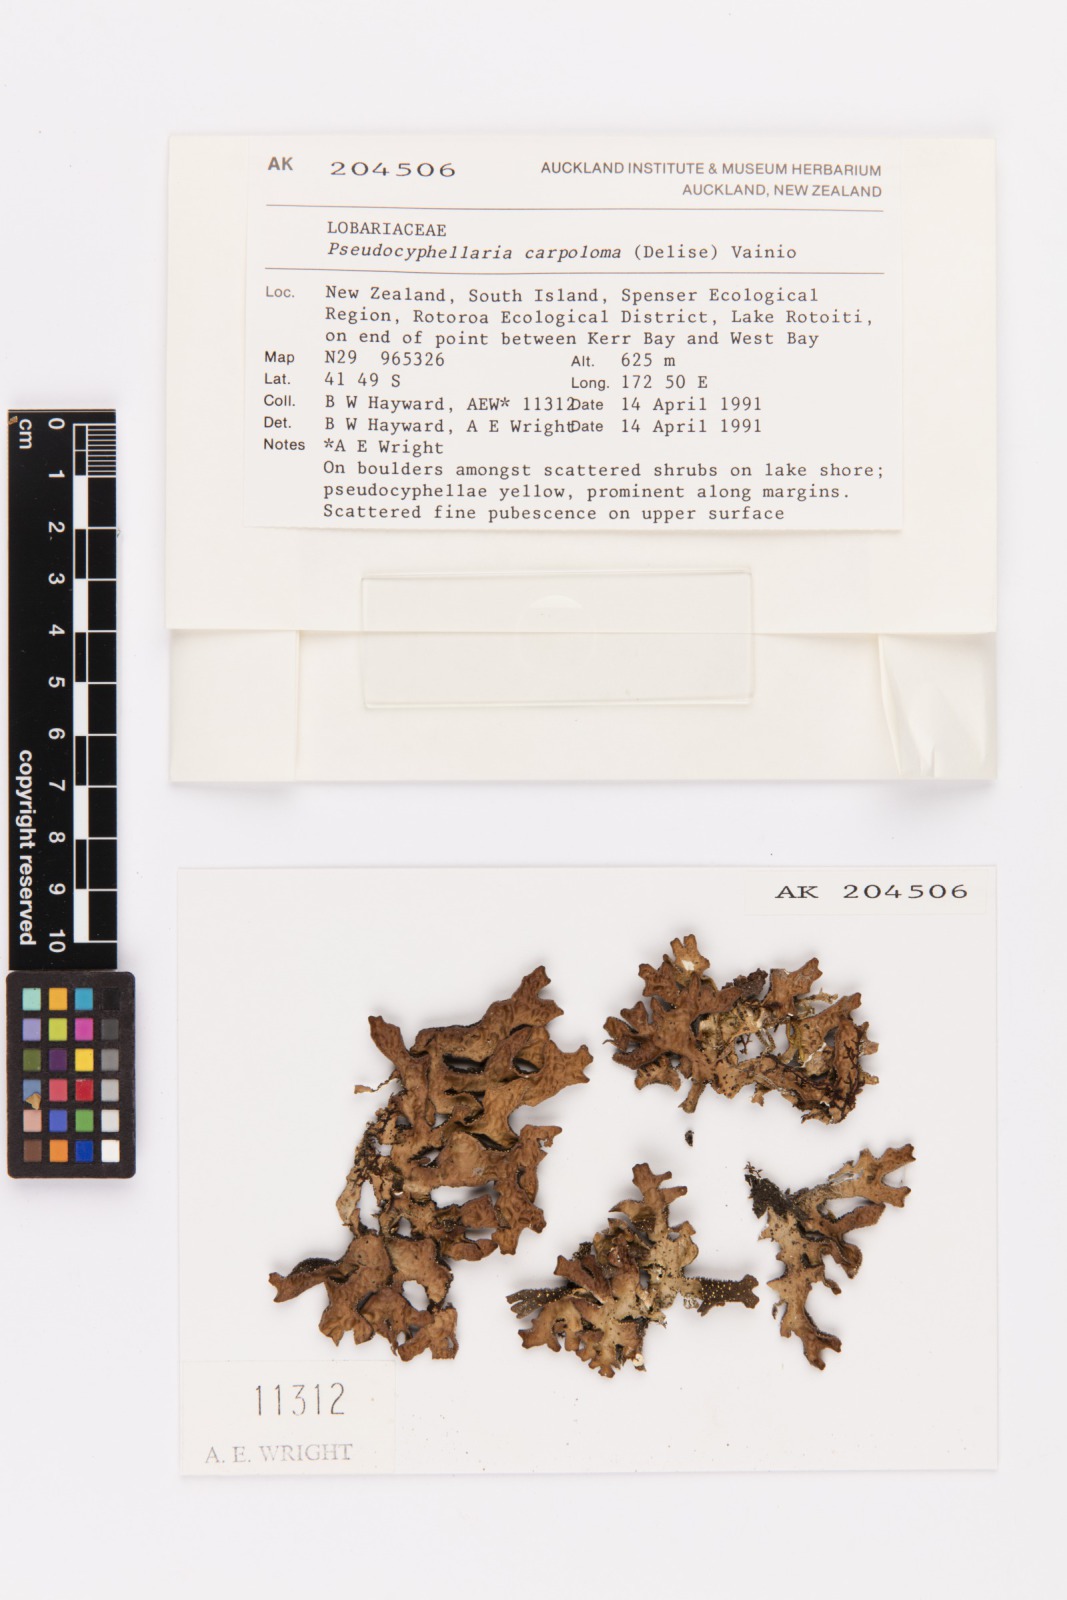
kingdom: Fungi
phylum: Ascomycota
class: Lecanoromycetes
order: Peltigerales
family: Lobariaceae
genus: Pseudocyphellaria
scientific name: Pseudocyphellaria carpoloma
